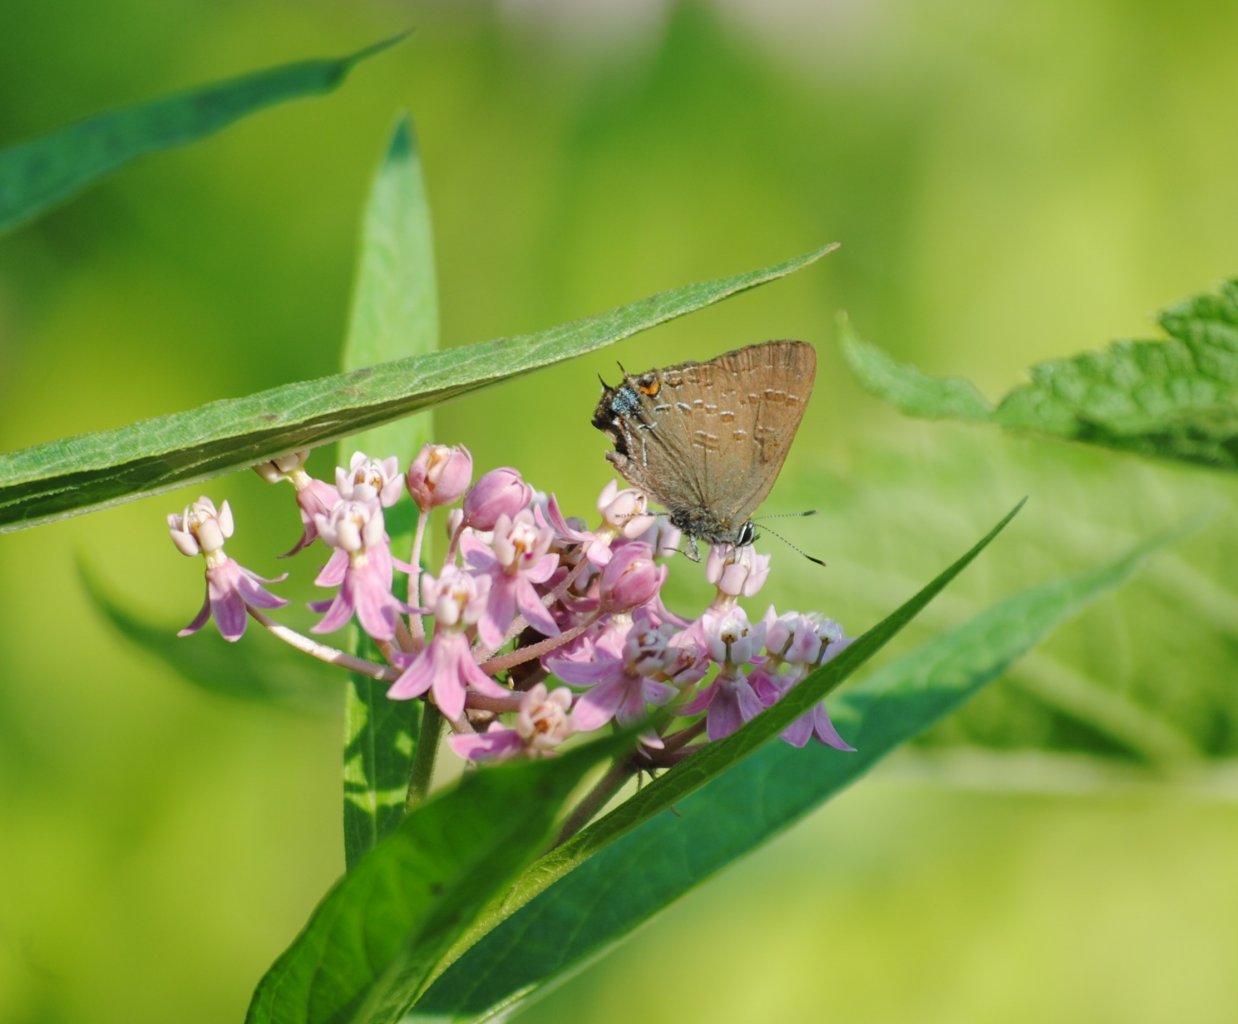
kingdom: Animalia
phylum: Arthropoda
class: Insecta
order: Lepidoptera
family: Lycaenidae
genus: Satyrium
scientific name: Satyrium calanus
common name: Banded Hairstreak
